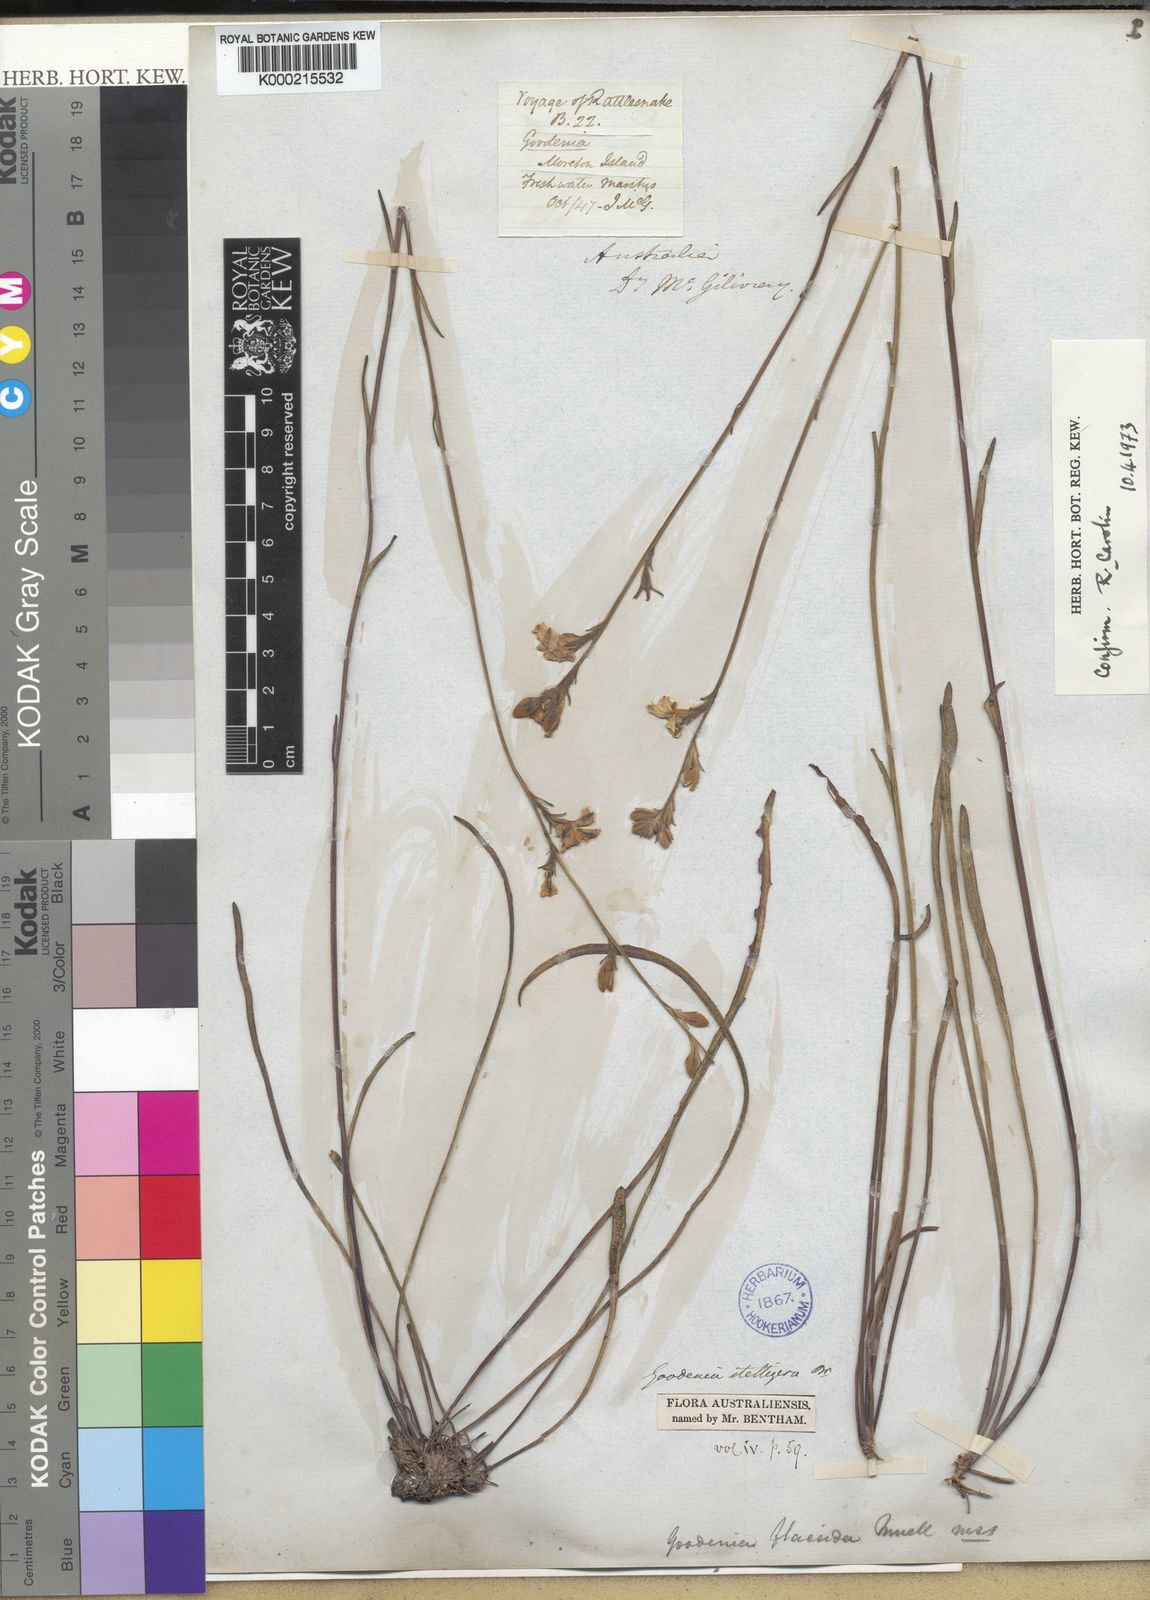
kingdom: Plantae
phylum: Tracheophyta
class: Magnoliopsida
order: Asterales
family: Goodeniaceae
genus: Goodenia
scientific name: Goodenia stelligera
